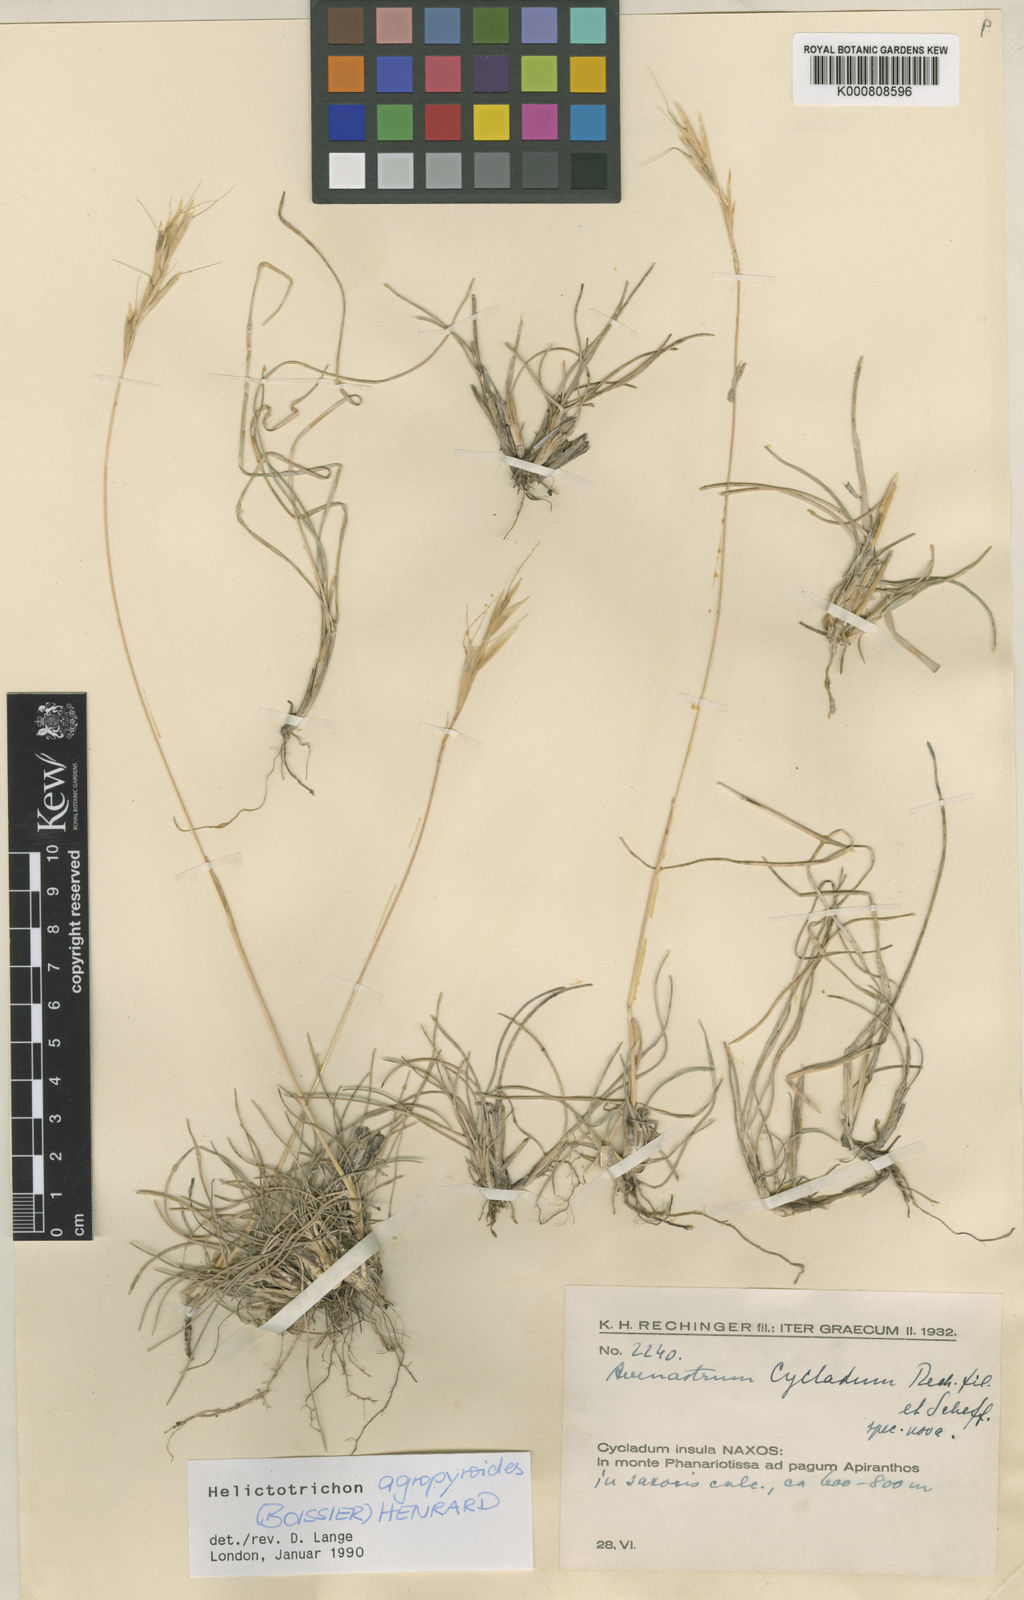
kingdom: Plantae
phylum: Tracheophyta
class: Liliopsida
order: Poales
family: Poaceae
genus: Helictotrichon
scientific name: Helictotrichon cycladum
